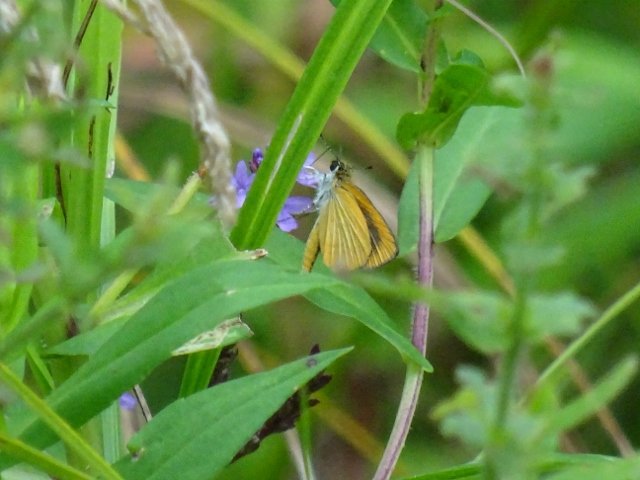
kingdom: Animalia
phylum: Arthropoda
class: Insecta
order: Lepidoptera
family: Hesperiidae
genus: Ancyloxypha
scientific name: Ancyloxypha numitor
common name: Least Skipper
